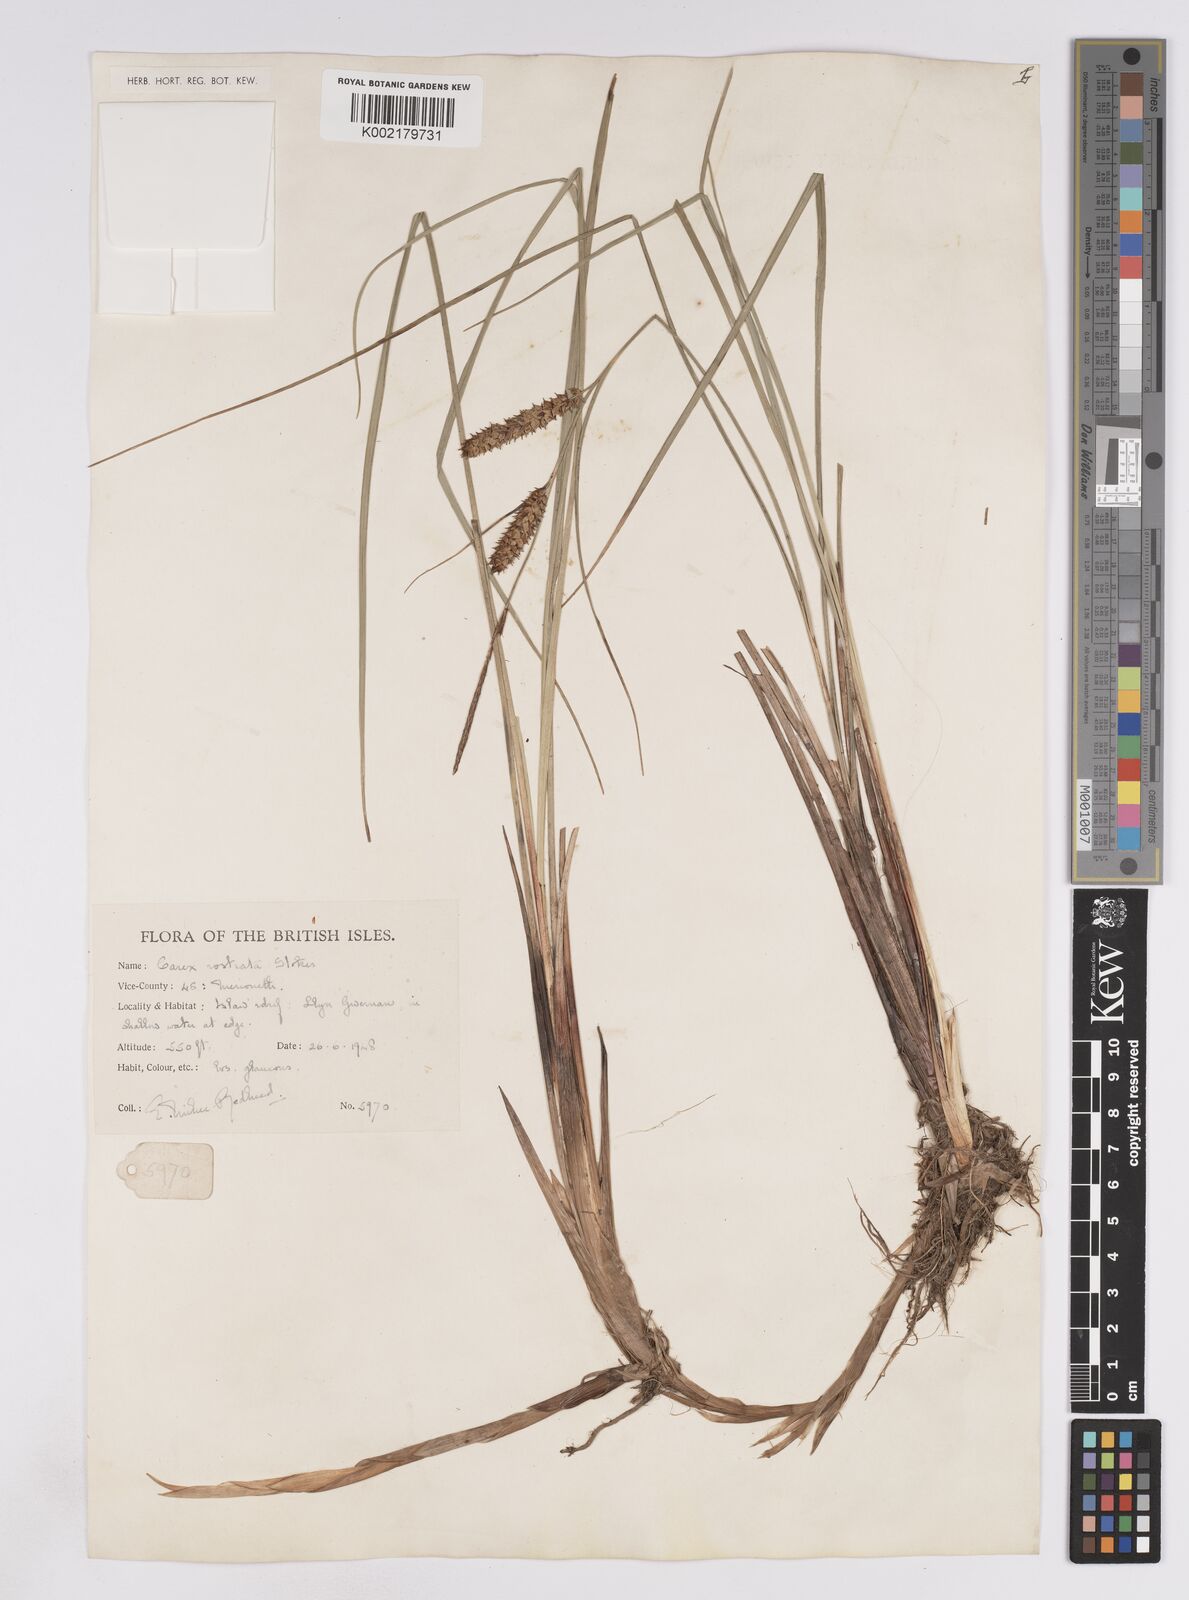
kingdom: Plantae
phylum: Tracheophyta
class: Liliopsida
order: Poales
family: Cyperaceae
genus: Carex
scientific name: Carex rostrata
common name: Bottle sedge
